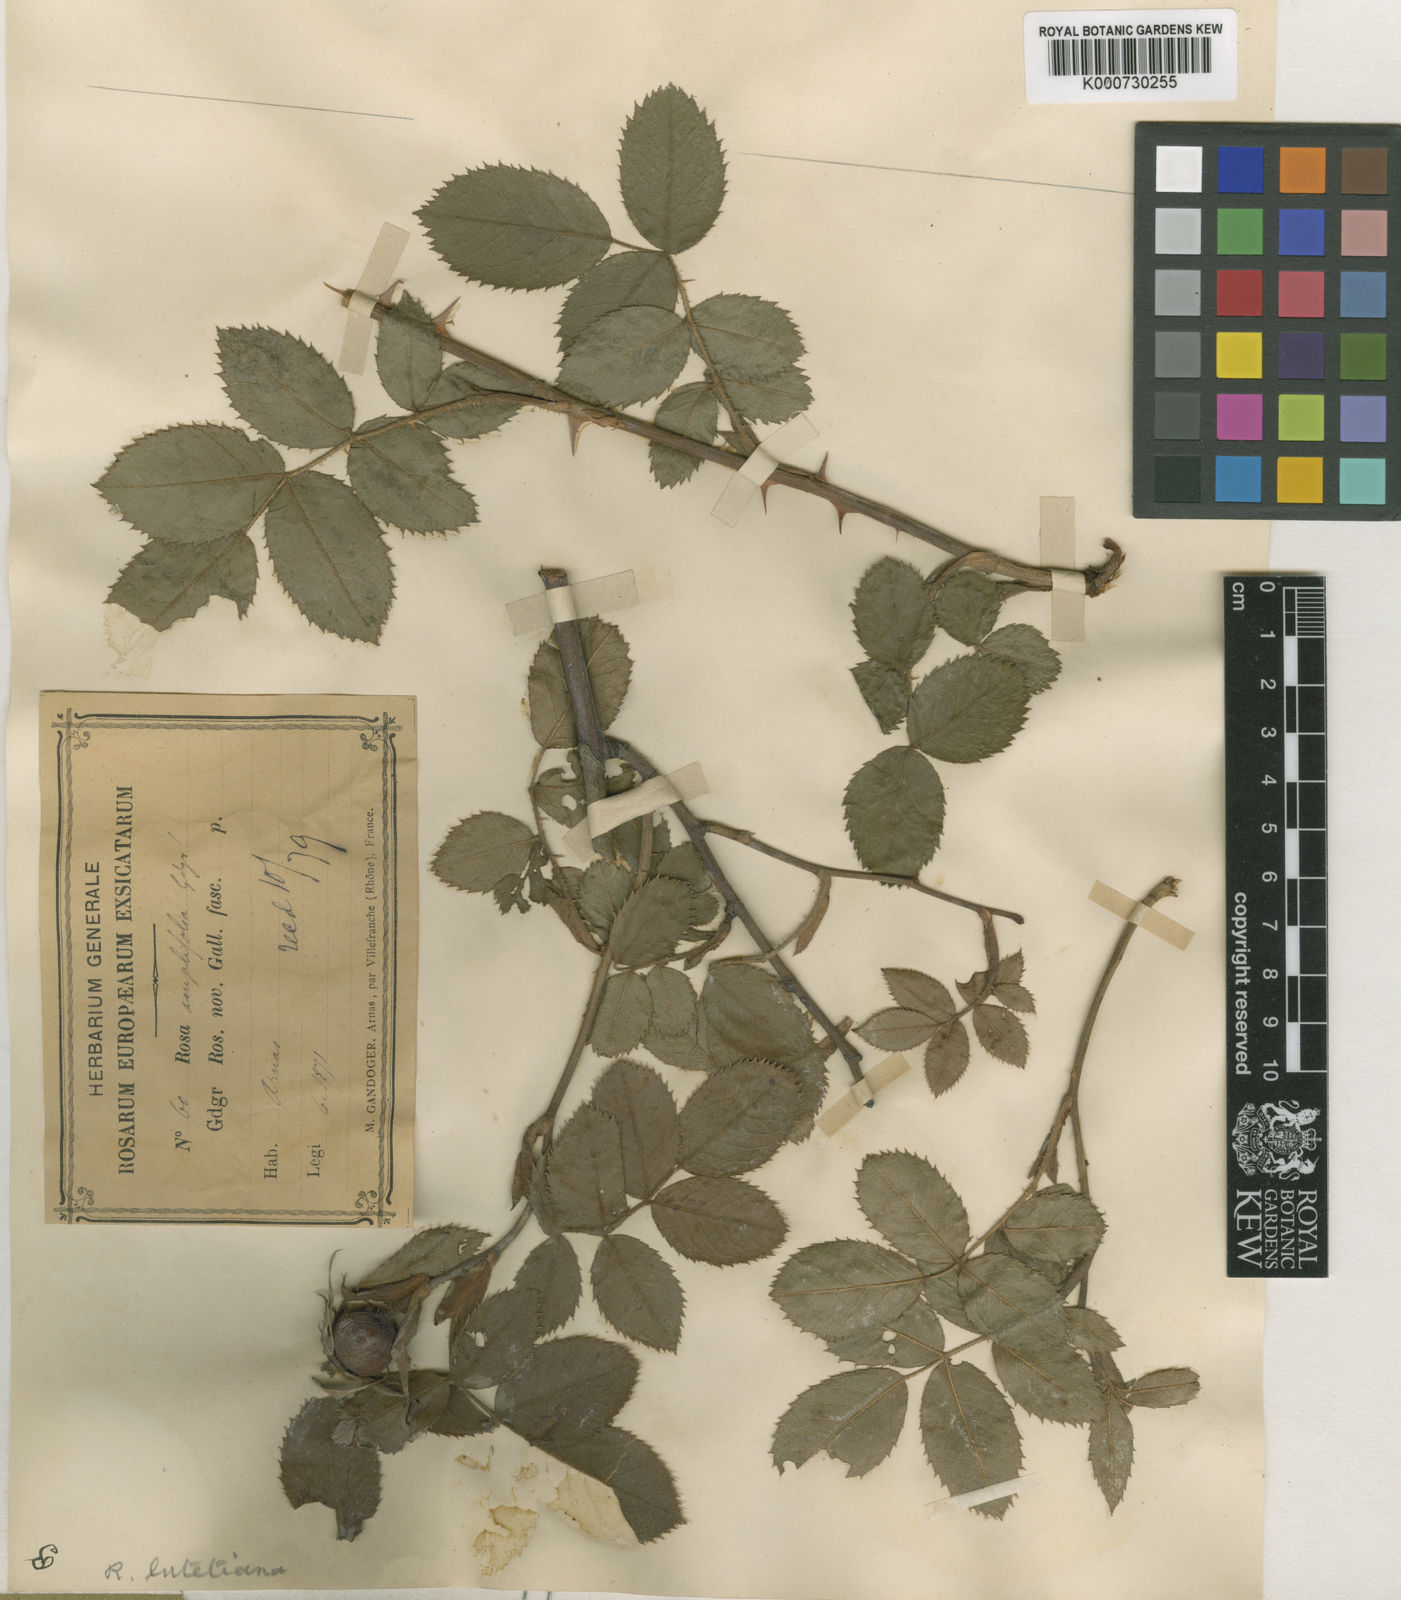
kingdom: Plantae
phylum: Tracheophyta
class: Magnoliopsida
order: Rosales
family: Rosaceae
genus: Rosa
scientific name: Rosa canina
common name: Dog rose
